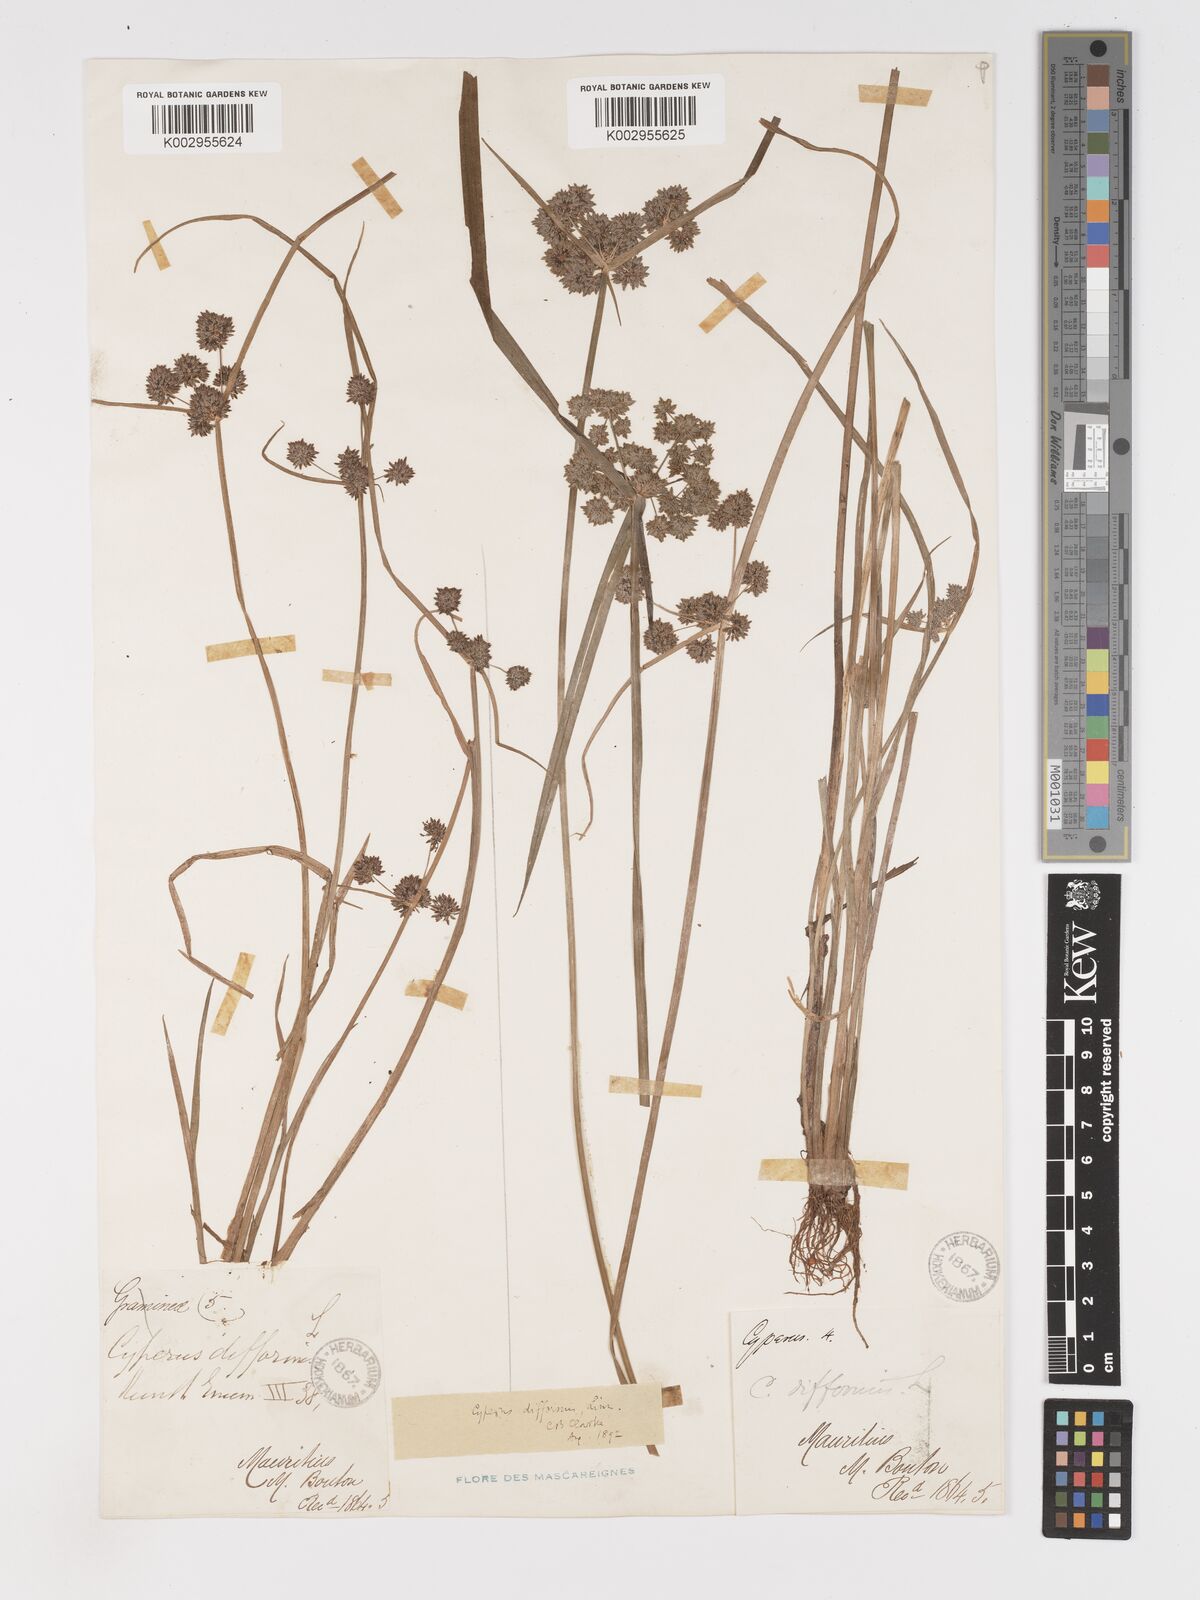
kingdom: Plantae
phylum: Tracheophyta
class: Liliopsida
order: Poales
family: Cyperaceae
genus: Cyperus
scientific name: Cyperus difformis
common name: Variable flatsedge
